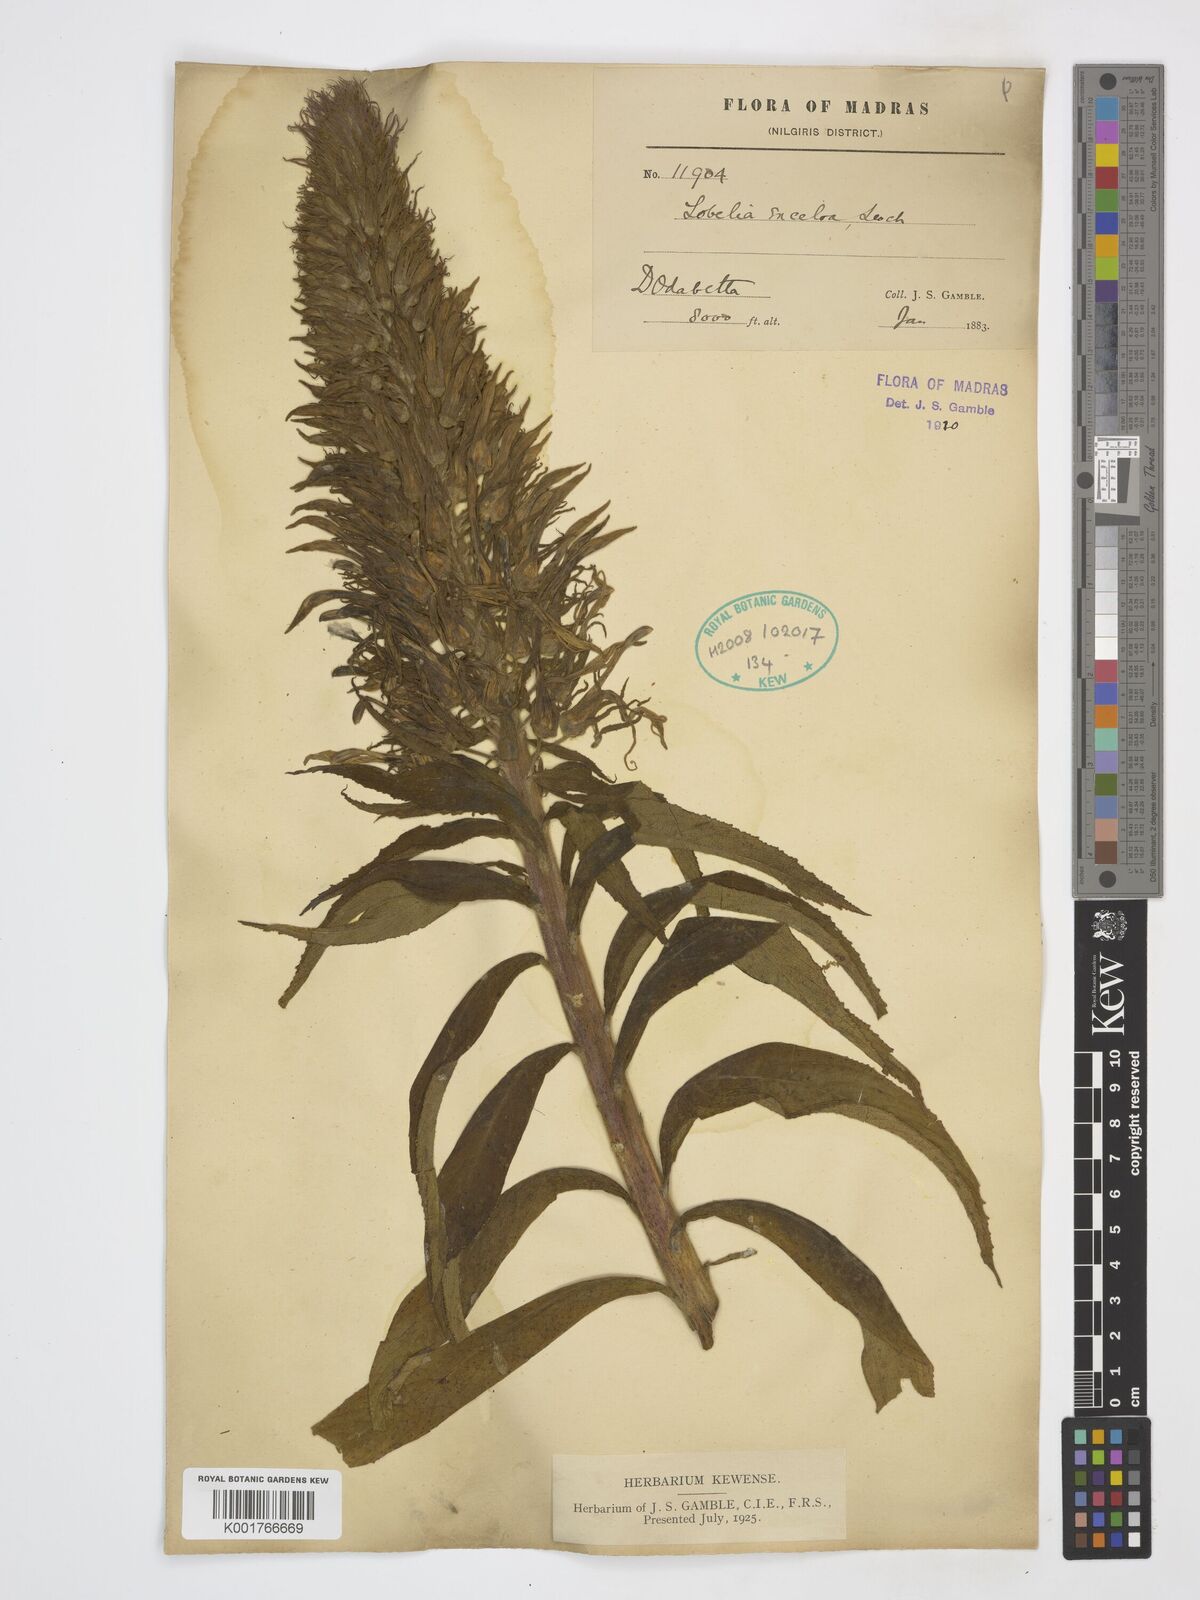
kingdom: Plantae
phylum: Tracheophyta
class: Magnoliopsida
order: Asterales
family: Campanulaceae
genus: Lobelia
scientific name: Lobelia excelsa
